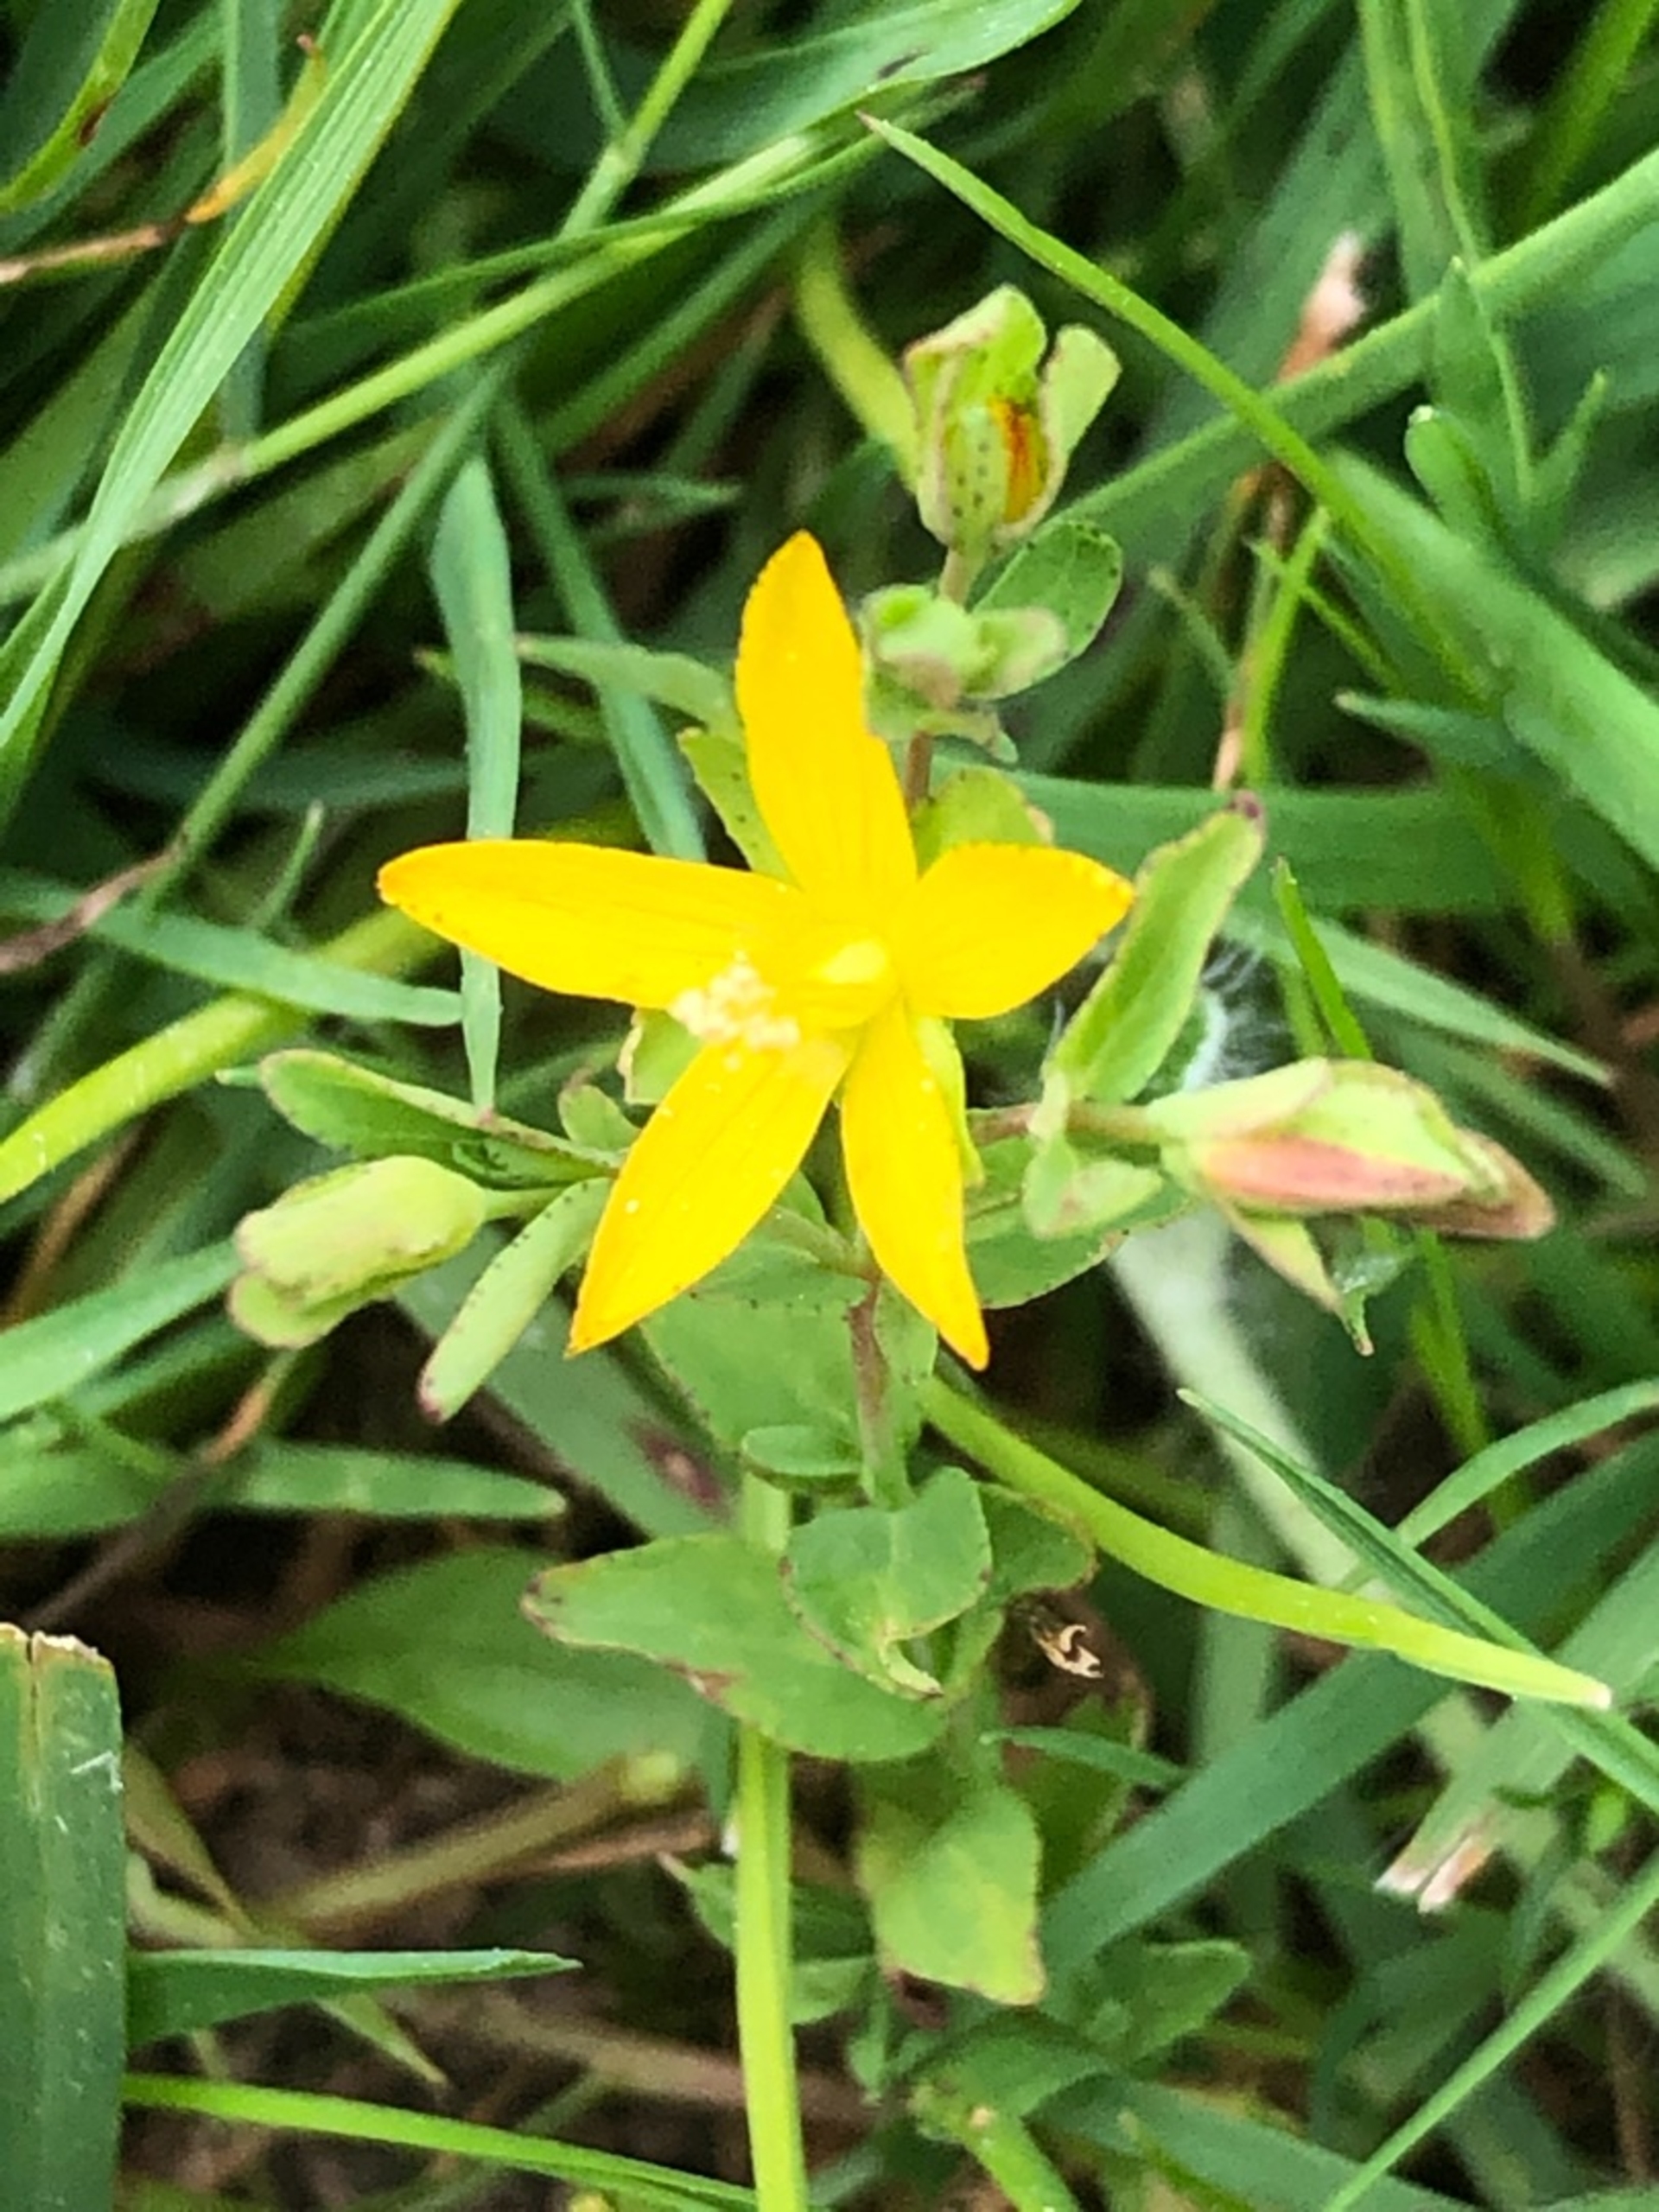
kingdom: Plantae
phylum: Tracheophyta
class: Magnoliopsida
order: Malpighiales
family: Hypericaceae
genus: Hypericum
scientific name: Hypericum humifusum
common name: Dværg-perikon
